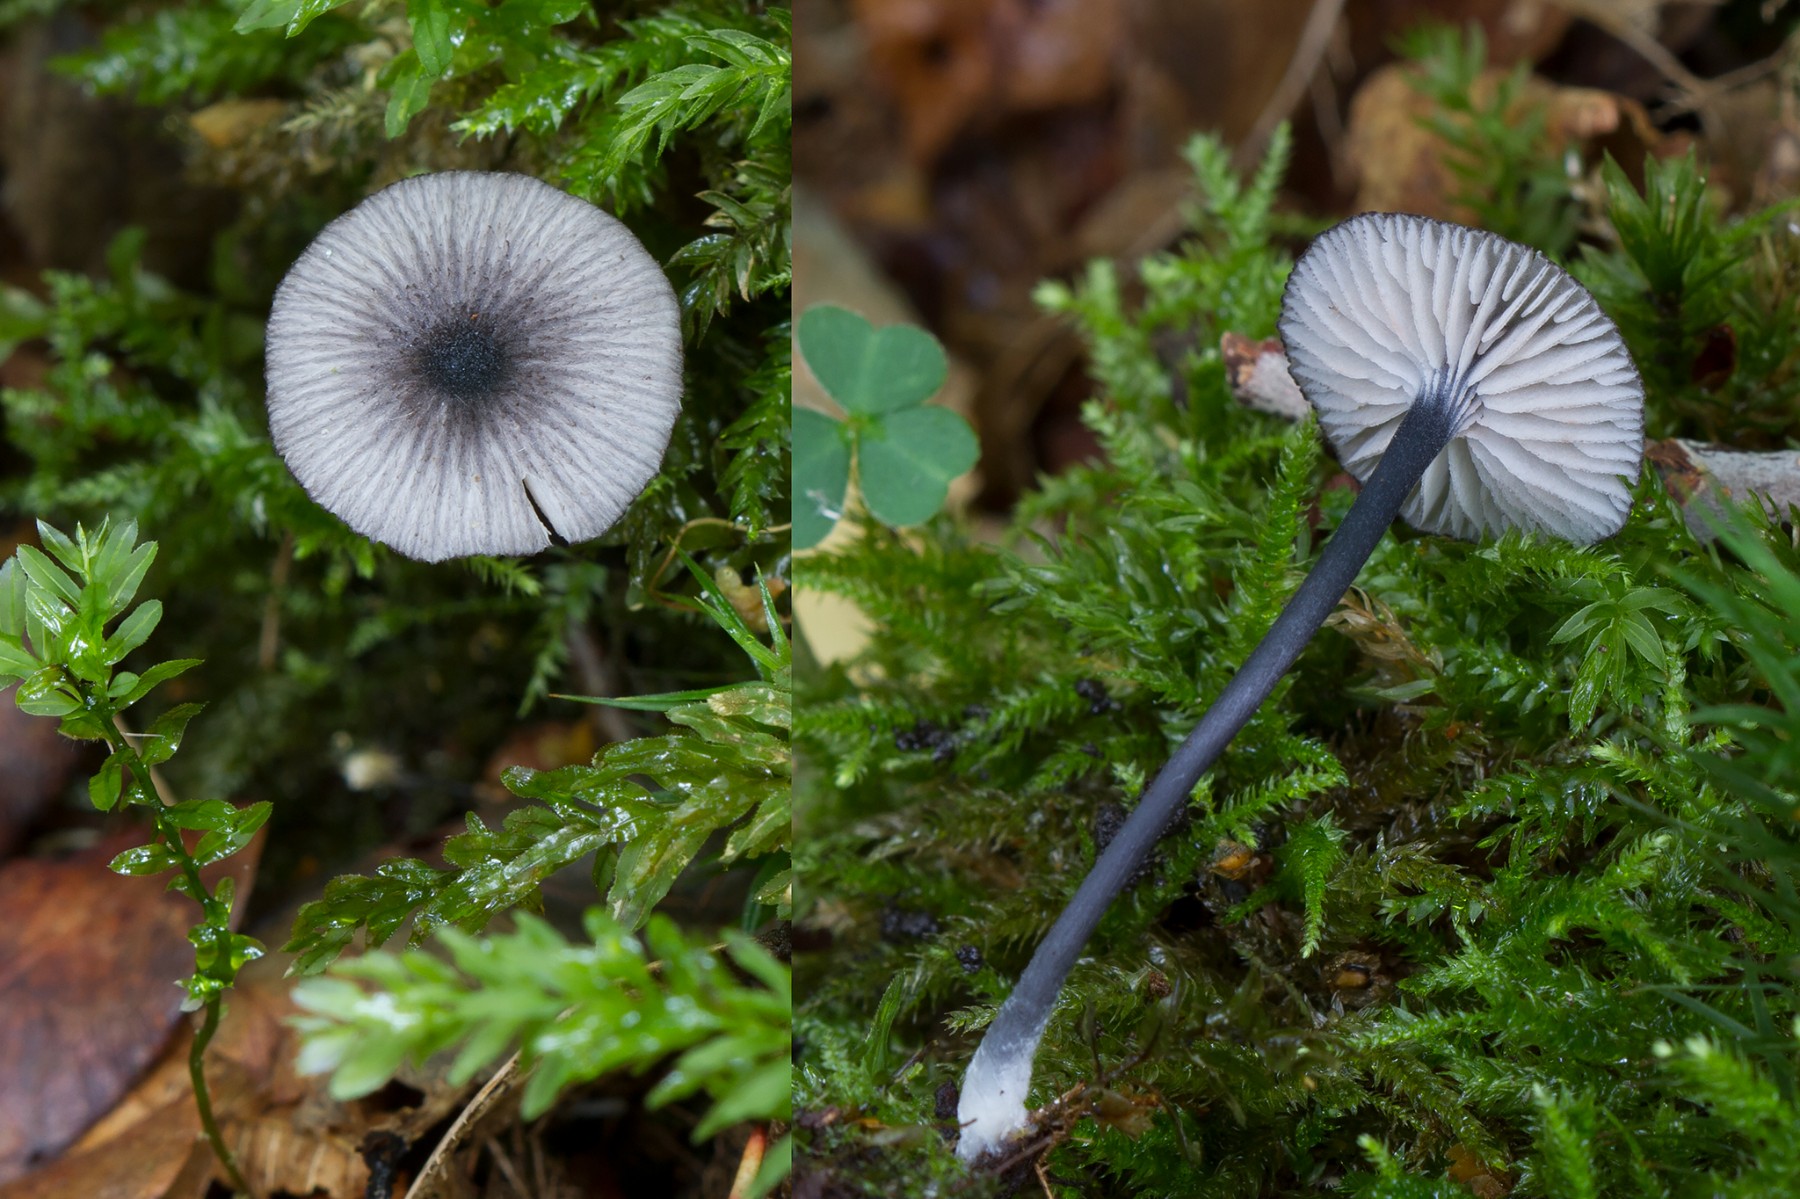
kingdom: Fungi
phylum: Basidiomycota
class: Agaricomycetes
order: Agaricales
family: Entolomataceae
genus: Entoloma
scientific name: Entoloma callipygmaeum
